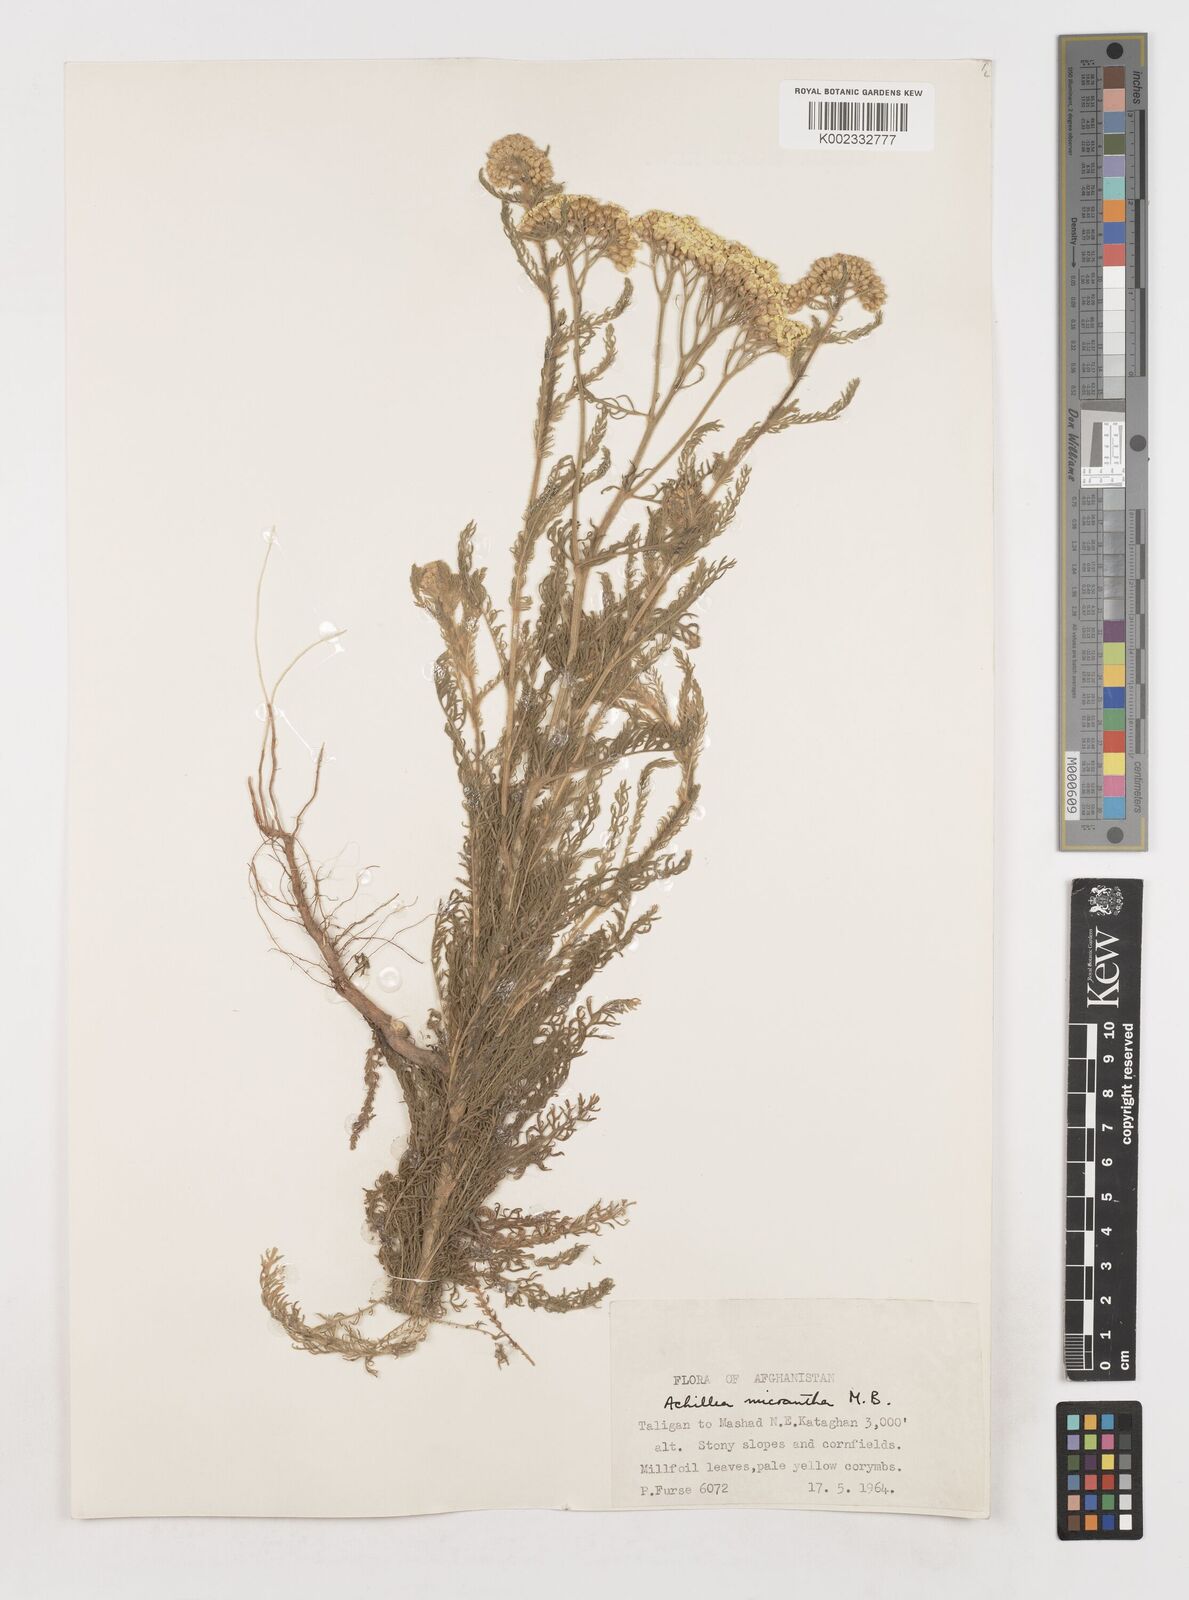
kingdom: Plantae
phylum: Tracheophyta
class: Magnoliopsida
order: Asterales
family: Asteraceae
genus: Achillea
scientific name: Achillea arabica
